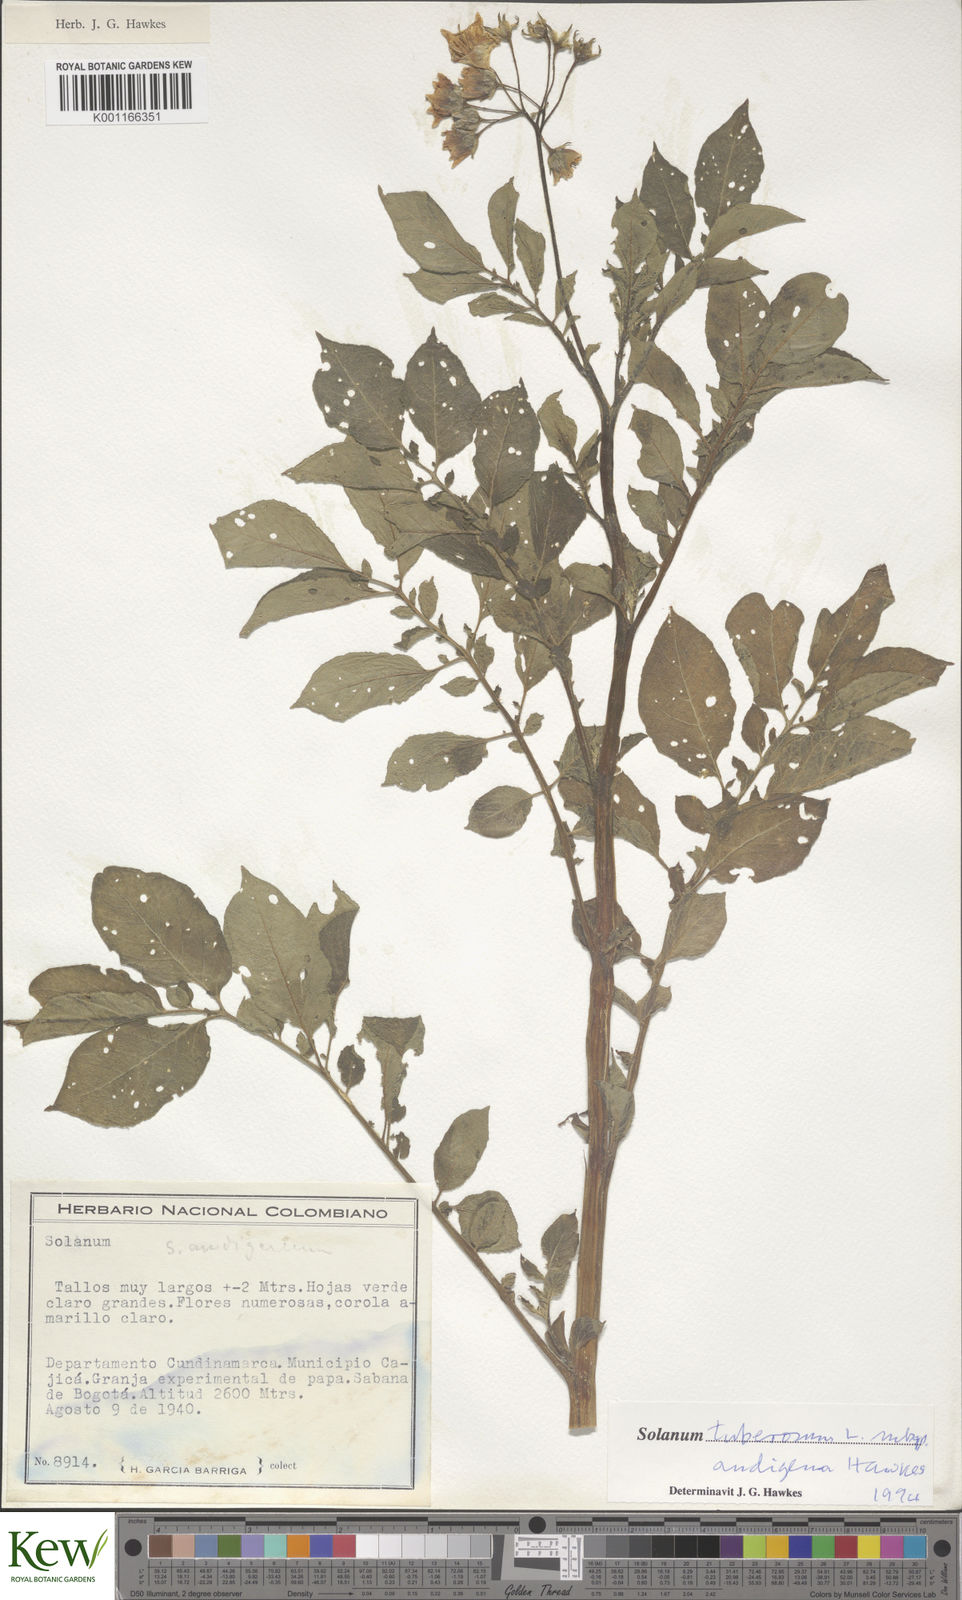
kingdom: Plantae
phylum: Tracheophyta
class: Magnoliopsida
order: Solanales
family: Solanaceae
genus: Solanum
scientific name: Solanum tuberosum
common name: Potato
